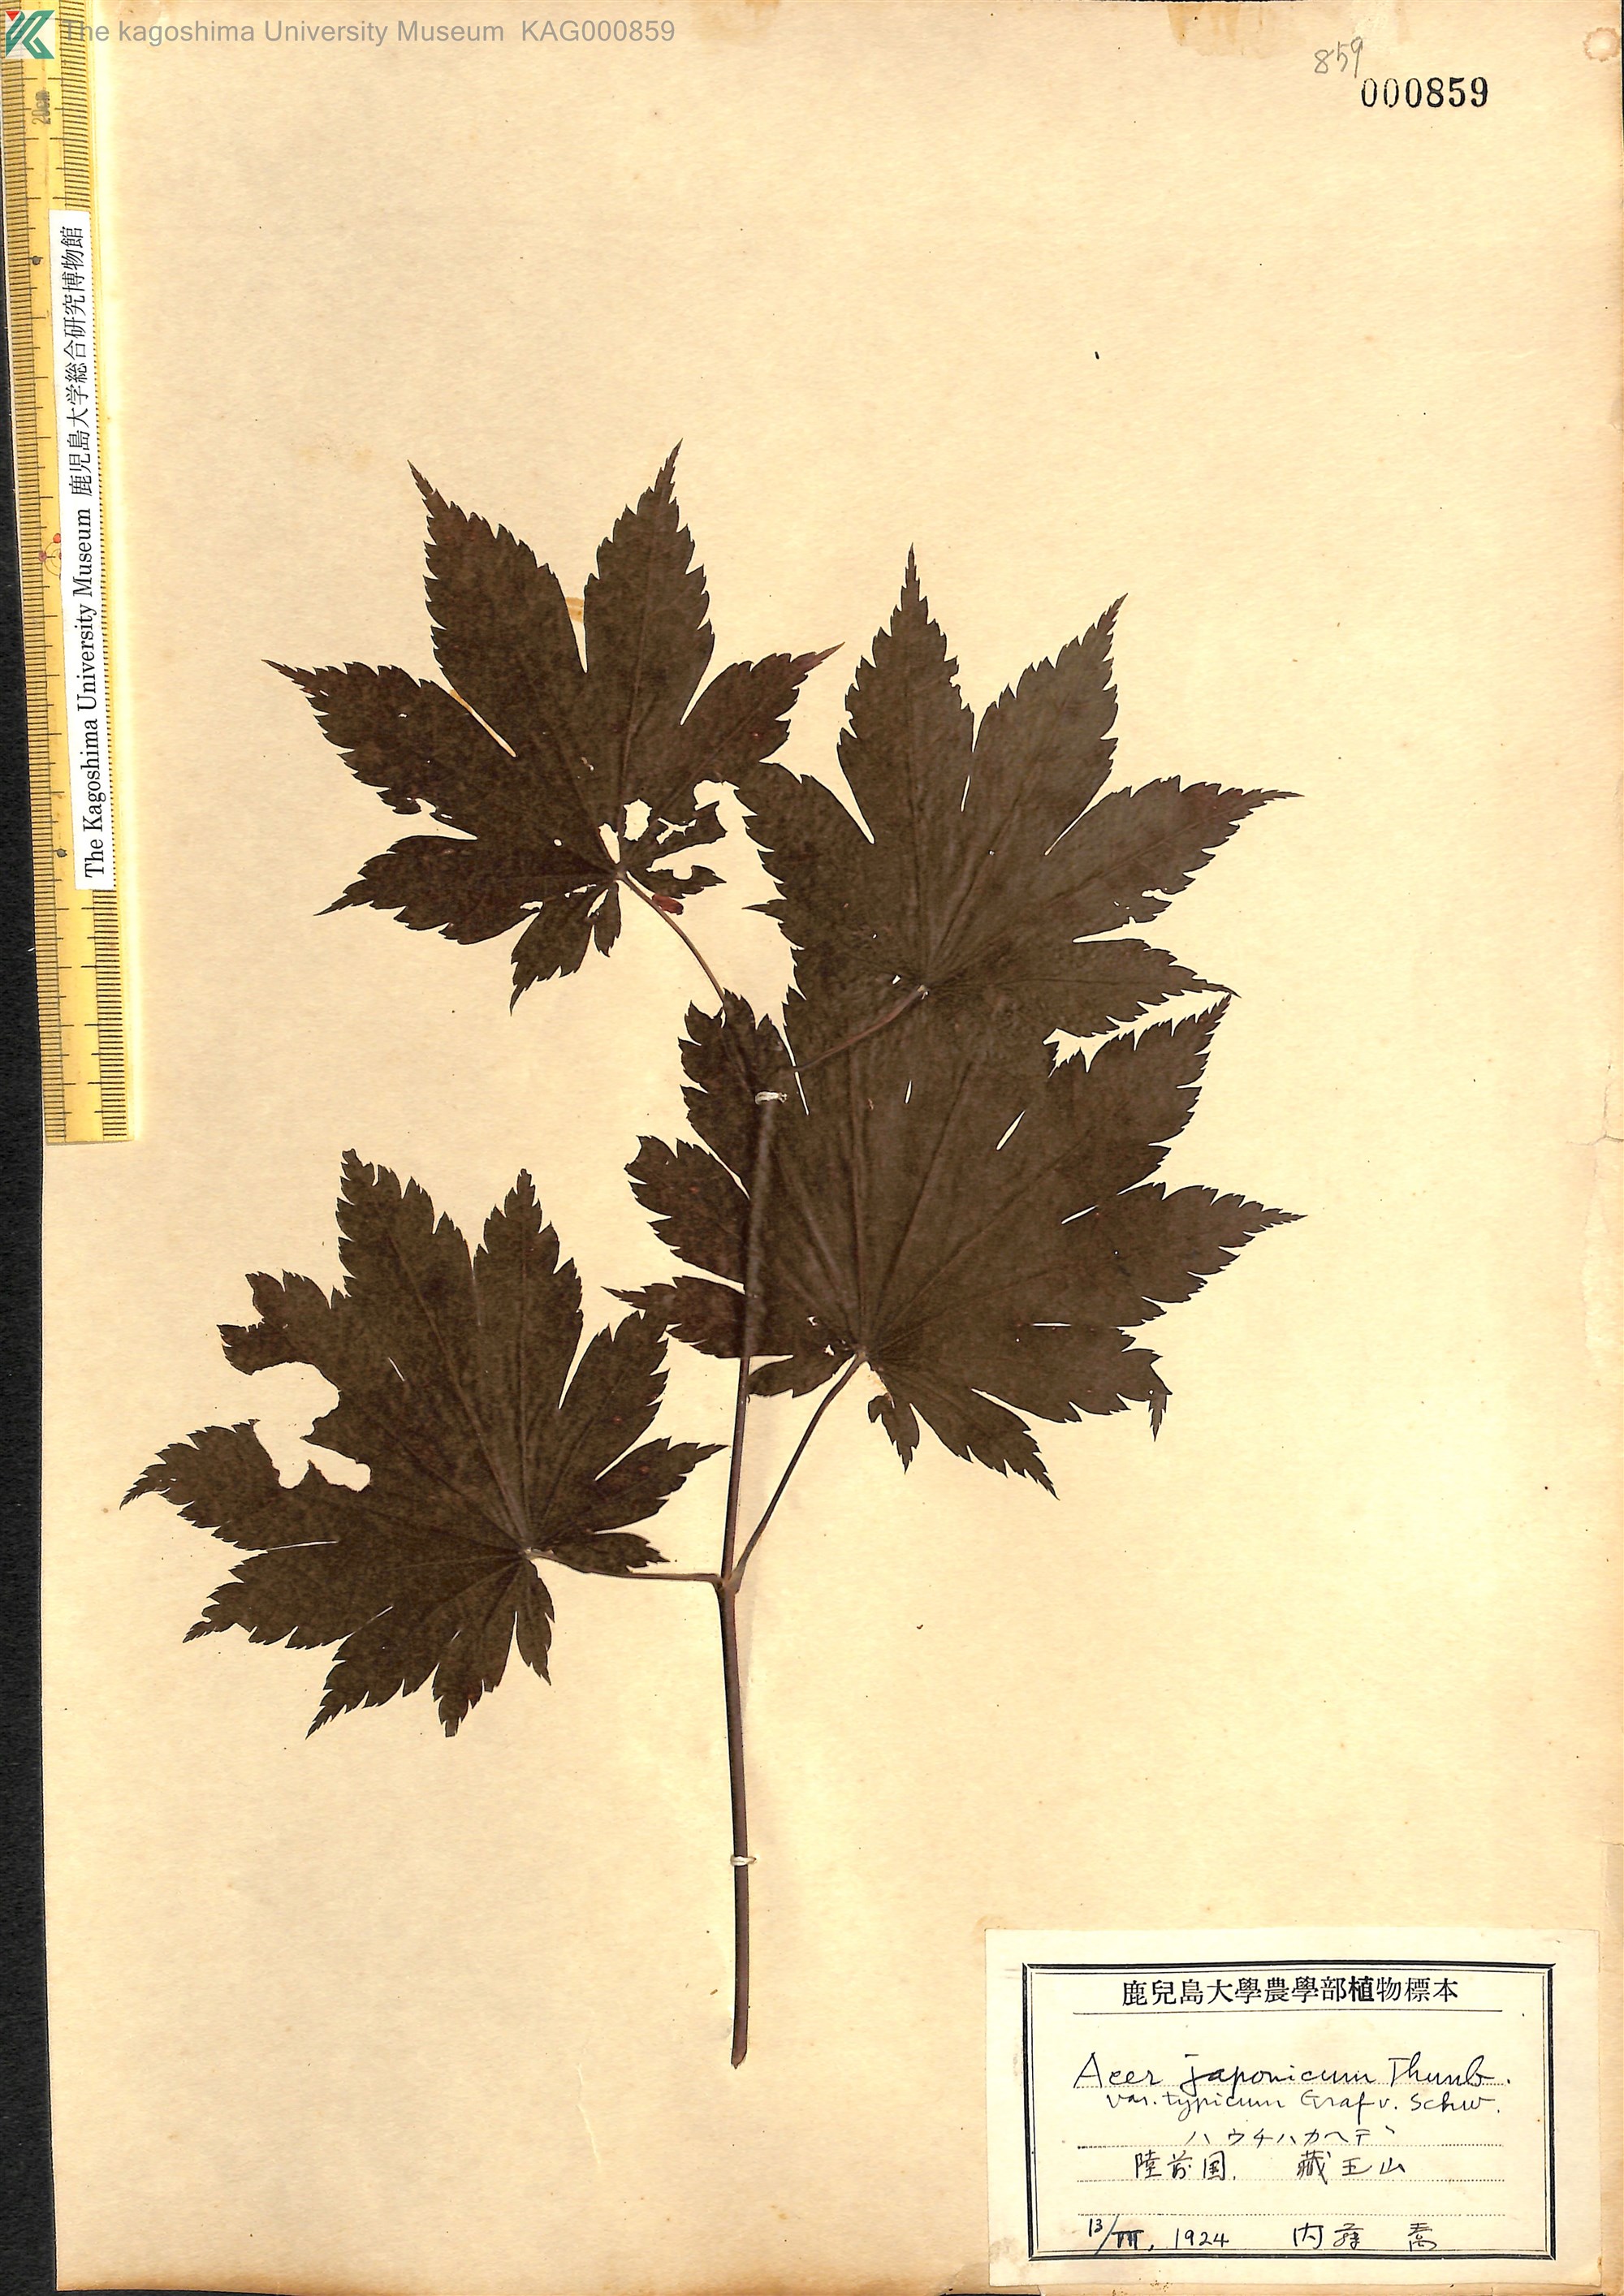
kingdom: Plantae
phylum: Tracheophyta
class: Magnoliopsida
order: Sapindales
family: Sapindaceae
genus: Acer
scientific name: Acer japonicum
